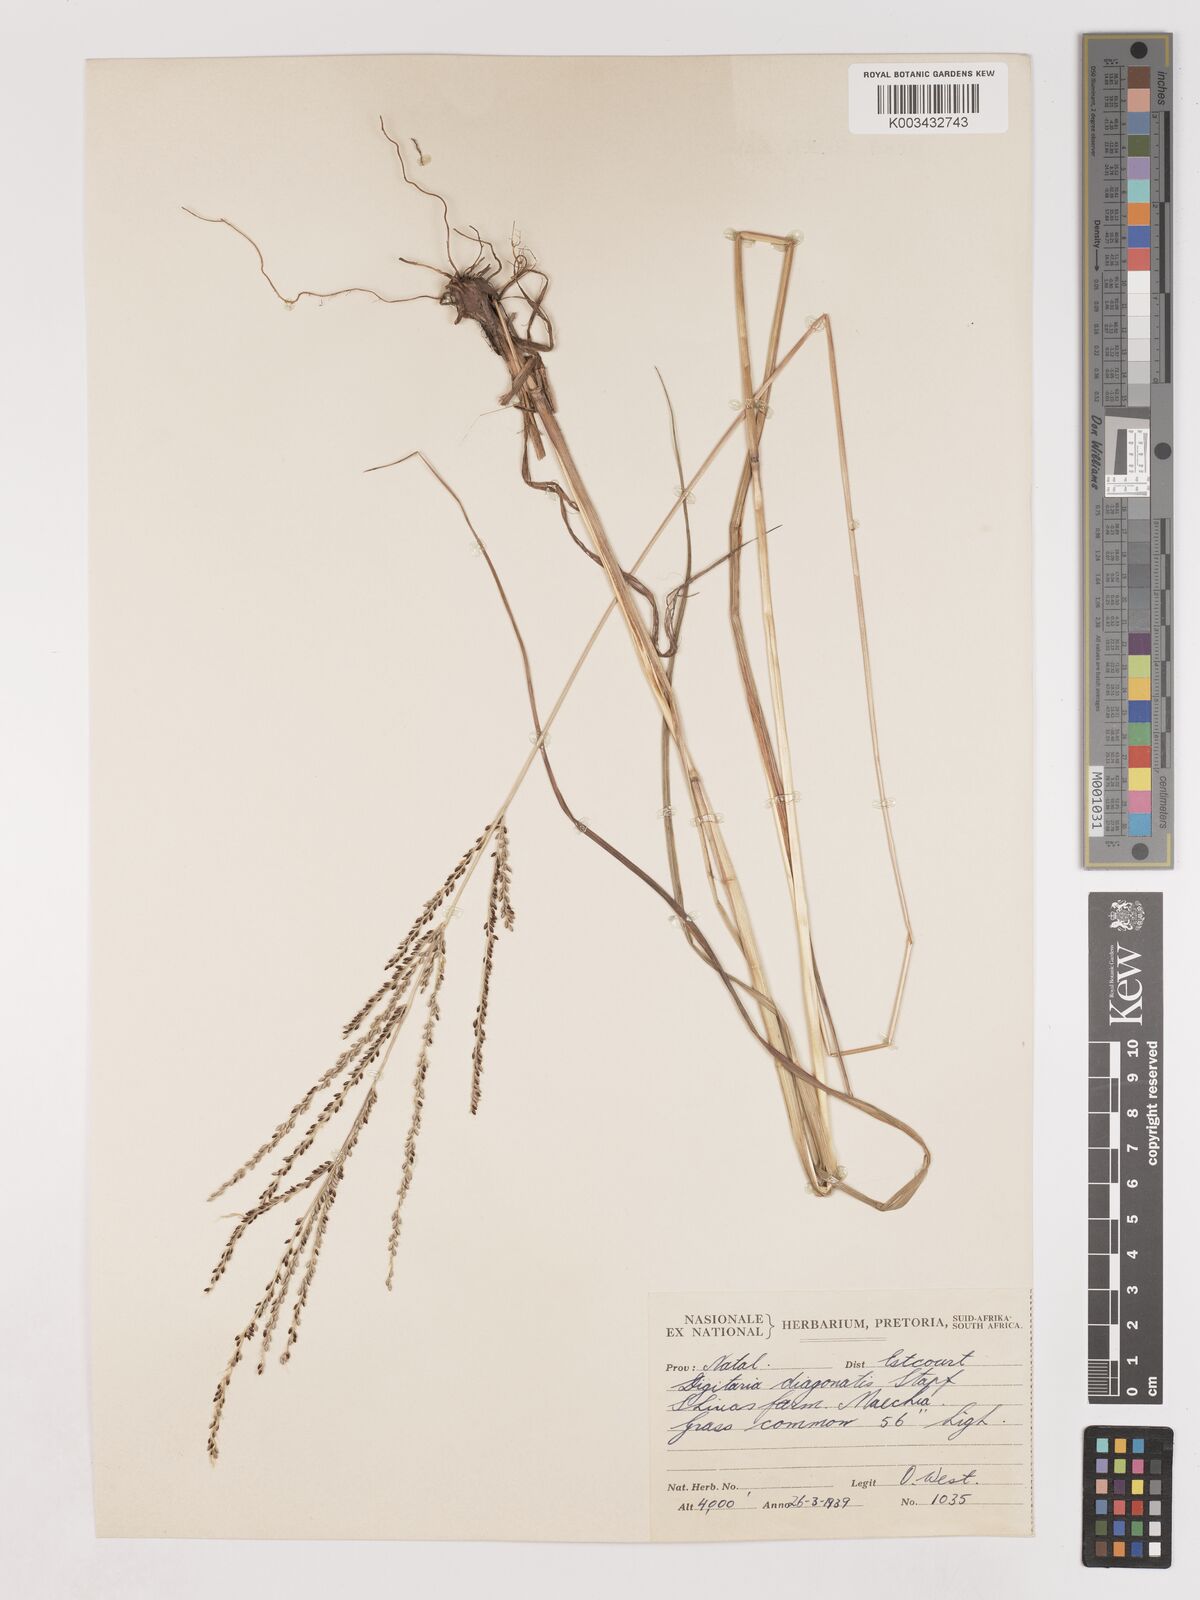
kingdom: Plantae
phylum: Tracheophyta
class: Liliopsida
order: Poales
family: Poaceae
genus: Digitaria
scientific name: Digitaria diagonalis
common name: Brown-seed finger grass
